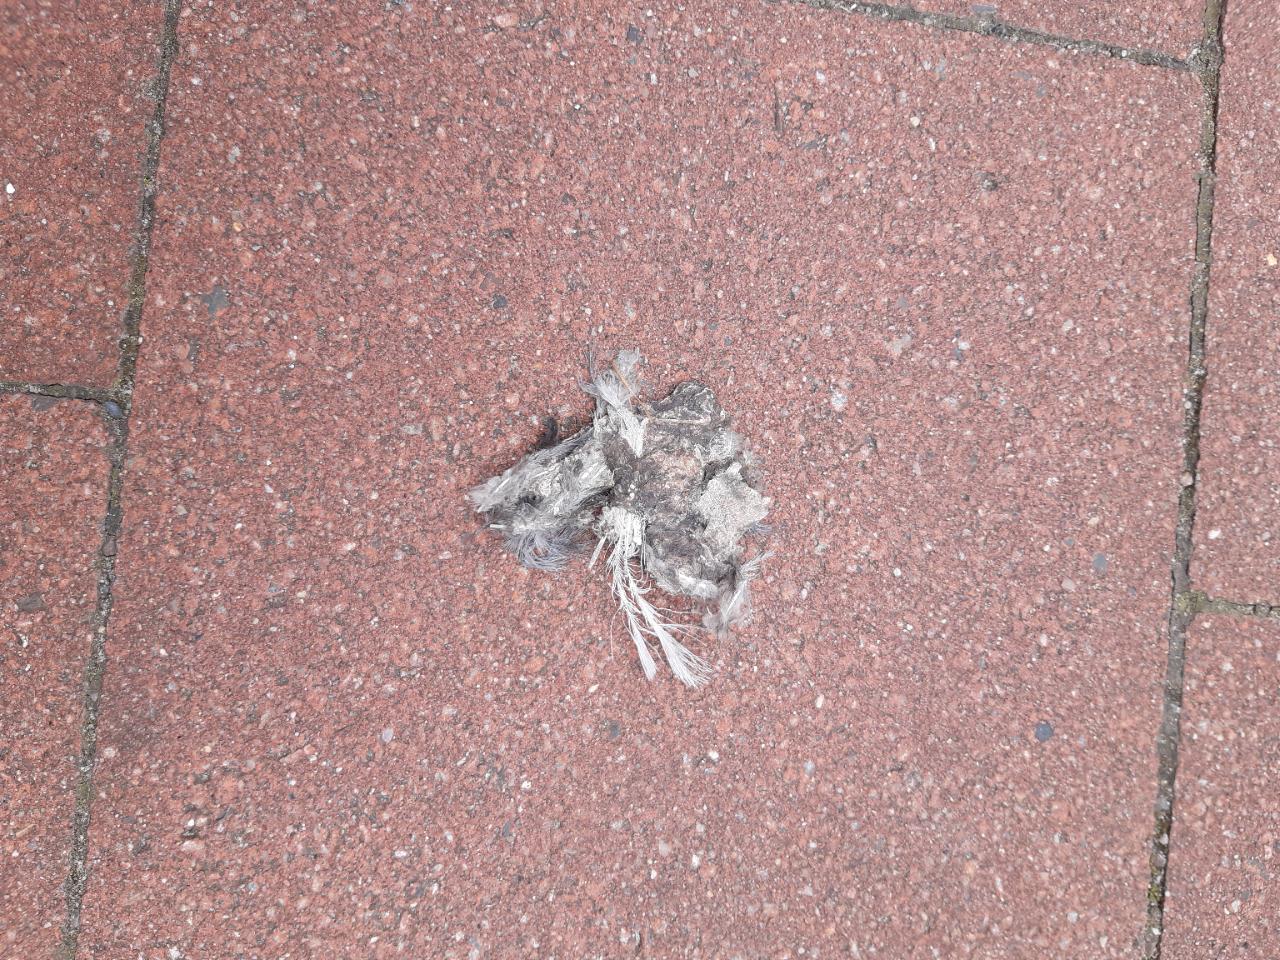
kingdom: Animalia
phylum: Chordata
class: Aves
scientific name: Aves
